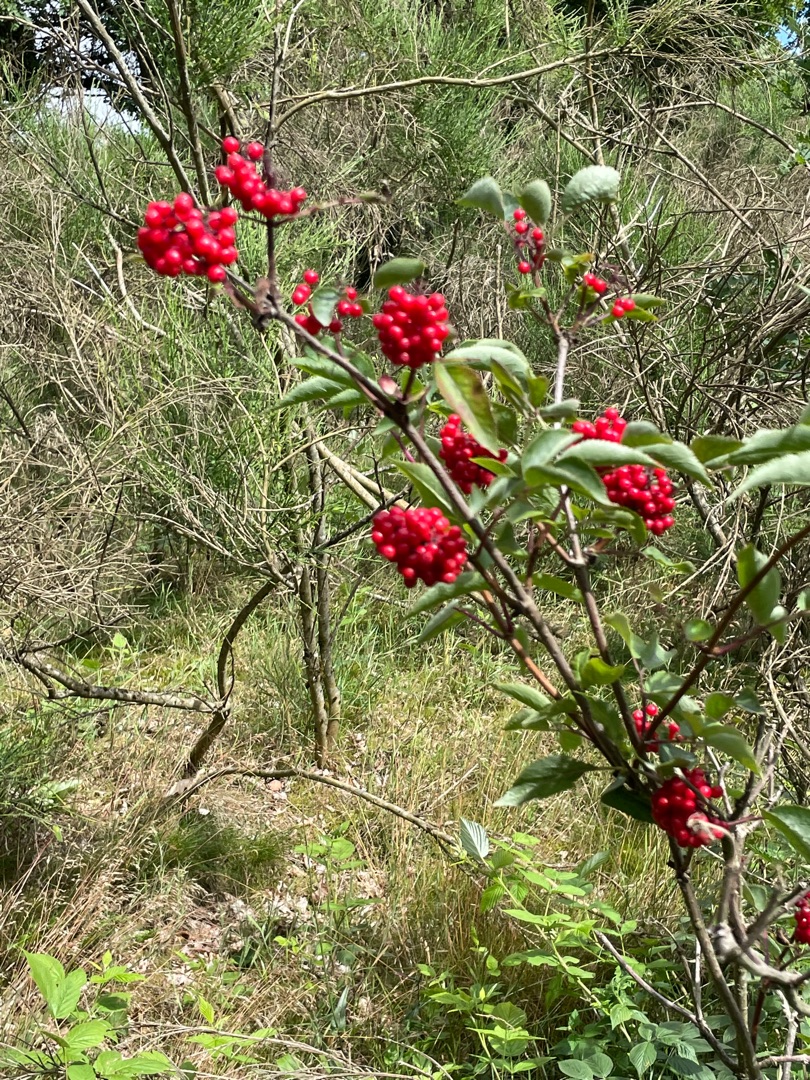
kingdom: Plantae
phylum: Tracheophyta
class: Magnoliopsida
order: Dipsacales
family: Viburnaceae
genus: Sambucus
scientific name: Sambucus racemosa
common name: Drue-hyld
